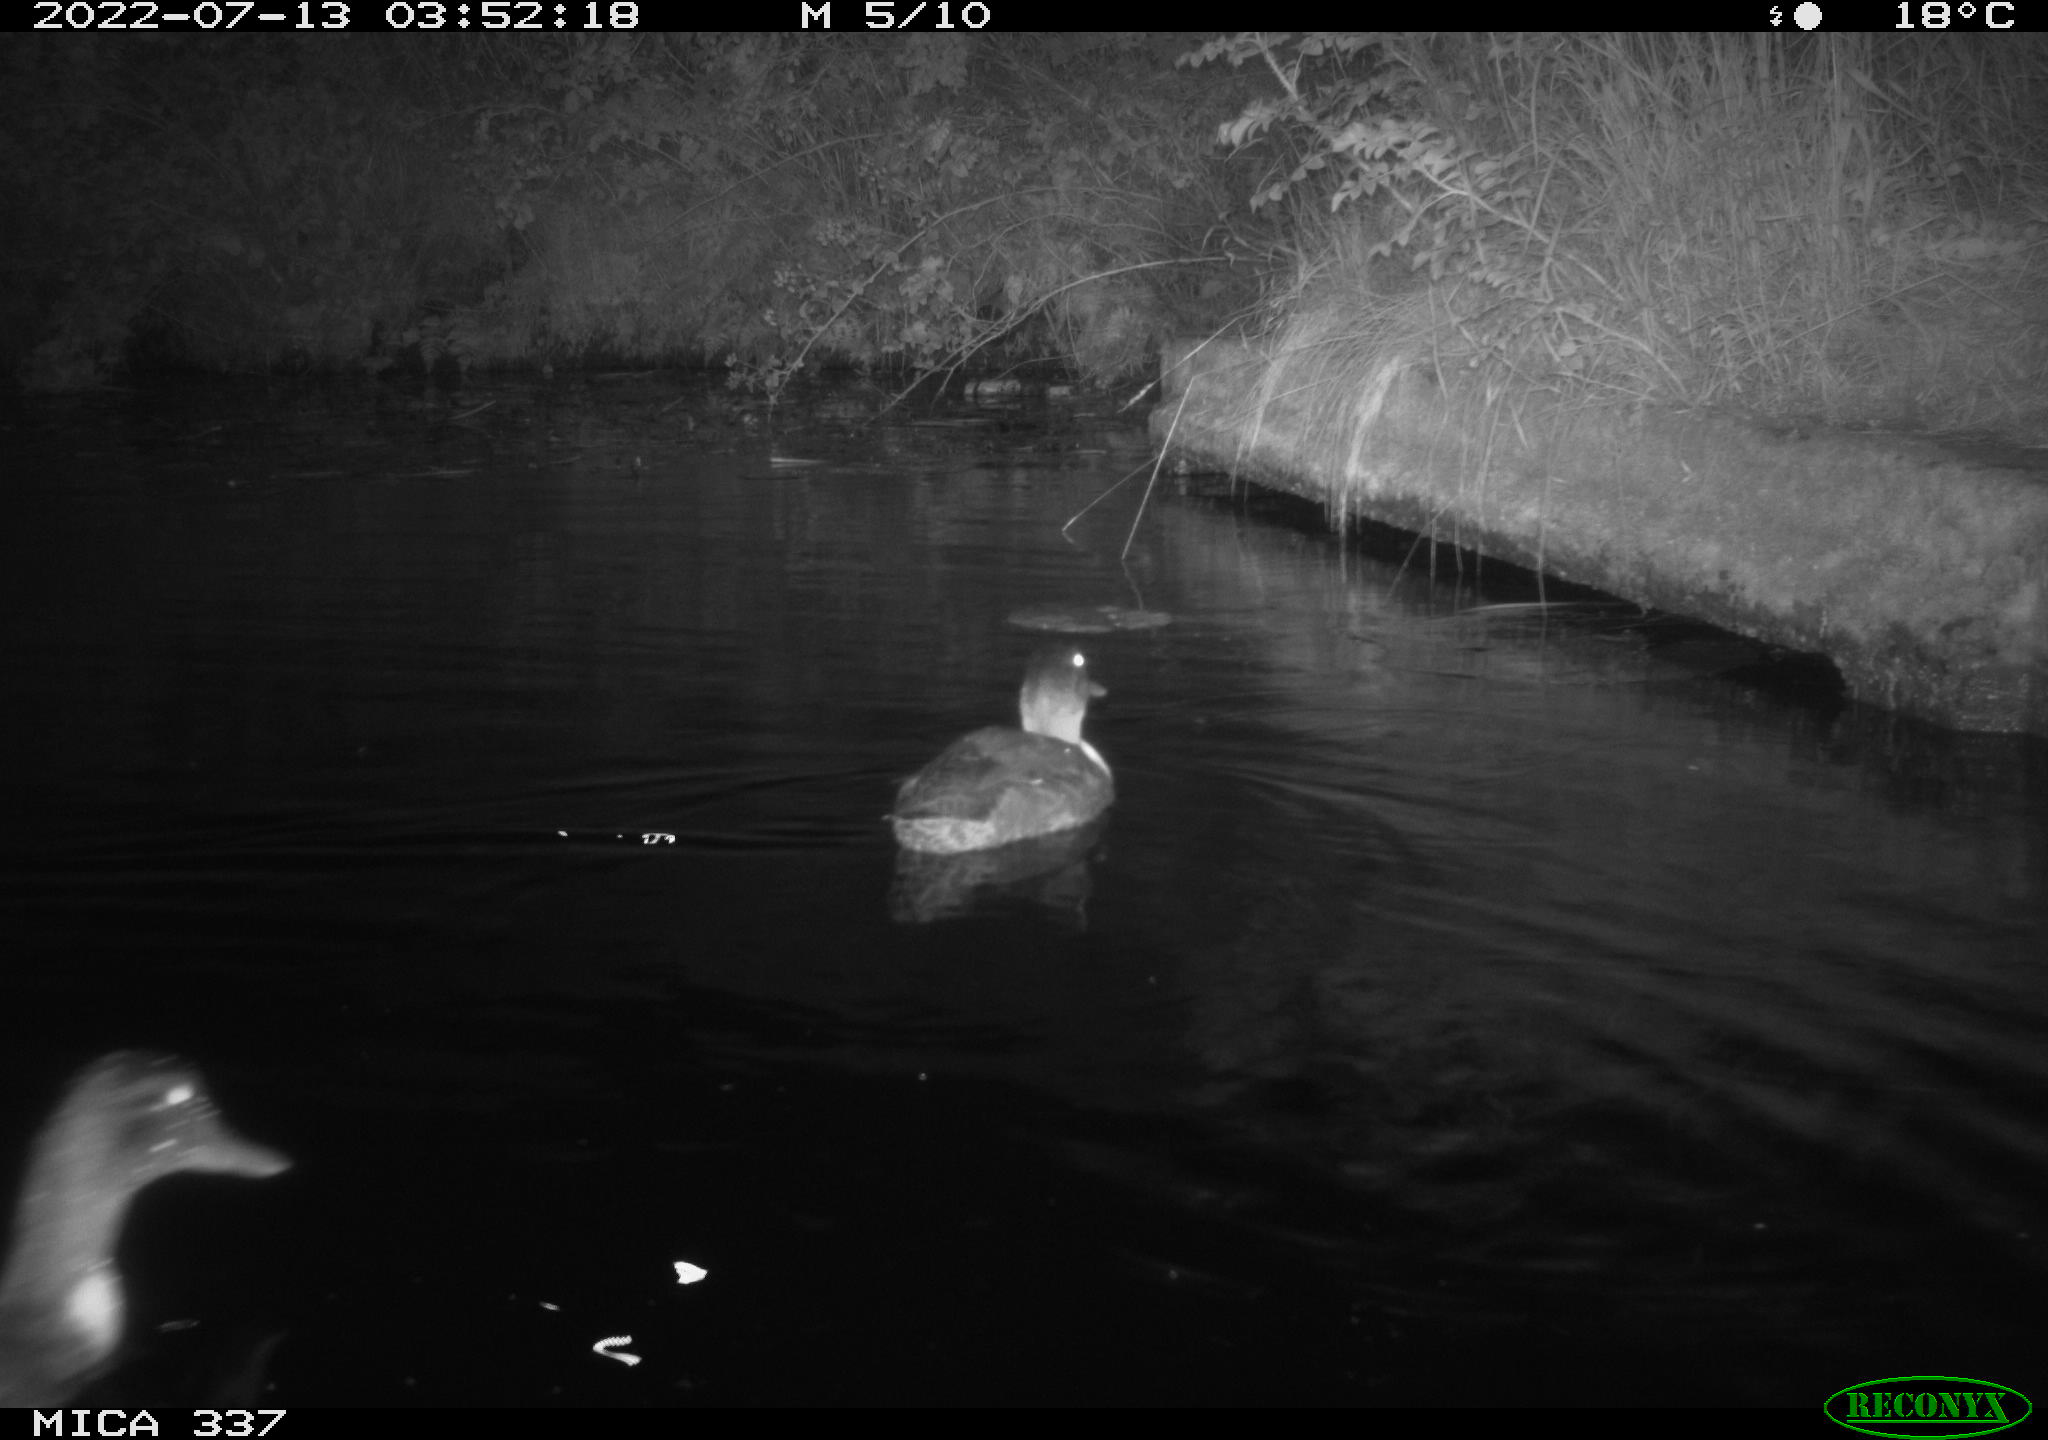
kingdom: Animalia
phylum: Chordata
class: Aves
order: Anseriformes
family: Anatidae
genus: Anas
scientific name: Anas platyrhynchos
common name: Mallard
